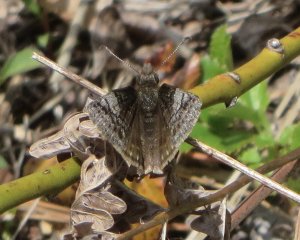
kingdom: Animalia
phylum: Arthropoda
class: Insecta
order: Lepidoptera
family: Hesperiidae
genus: Erynnis
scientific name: Erynnis icelus
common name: Dreamy Duskywing
